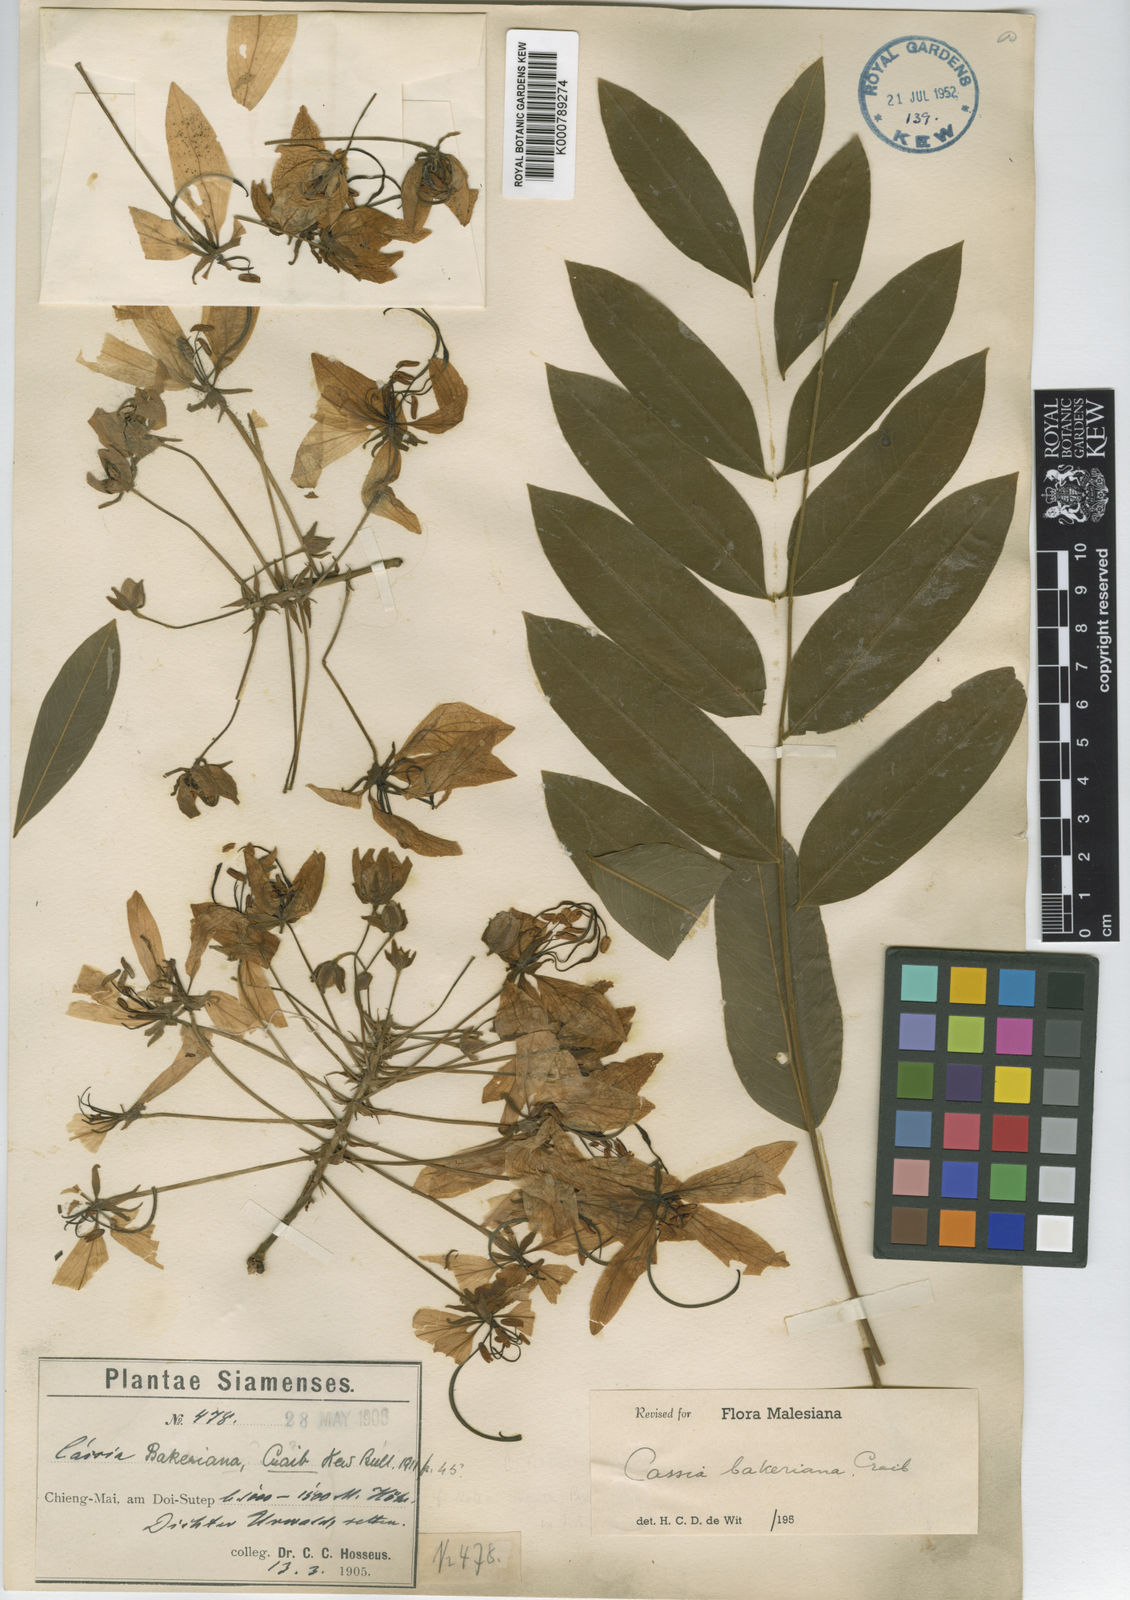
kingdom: Plantae
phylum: Tracheophyta
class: Magnoliopsida
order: Fabales
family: Fabaceae
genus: Cassia
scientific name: Cassia bakeriana
